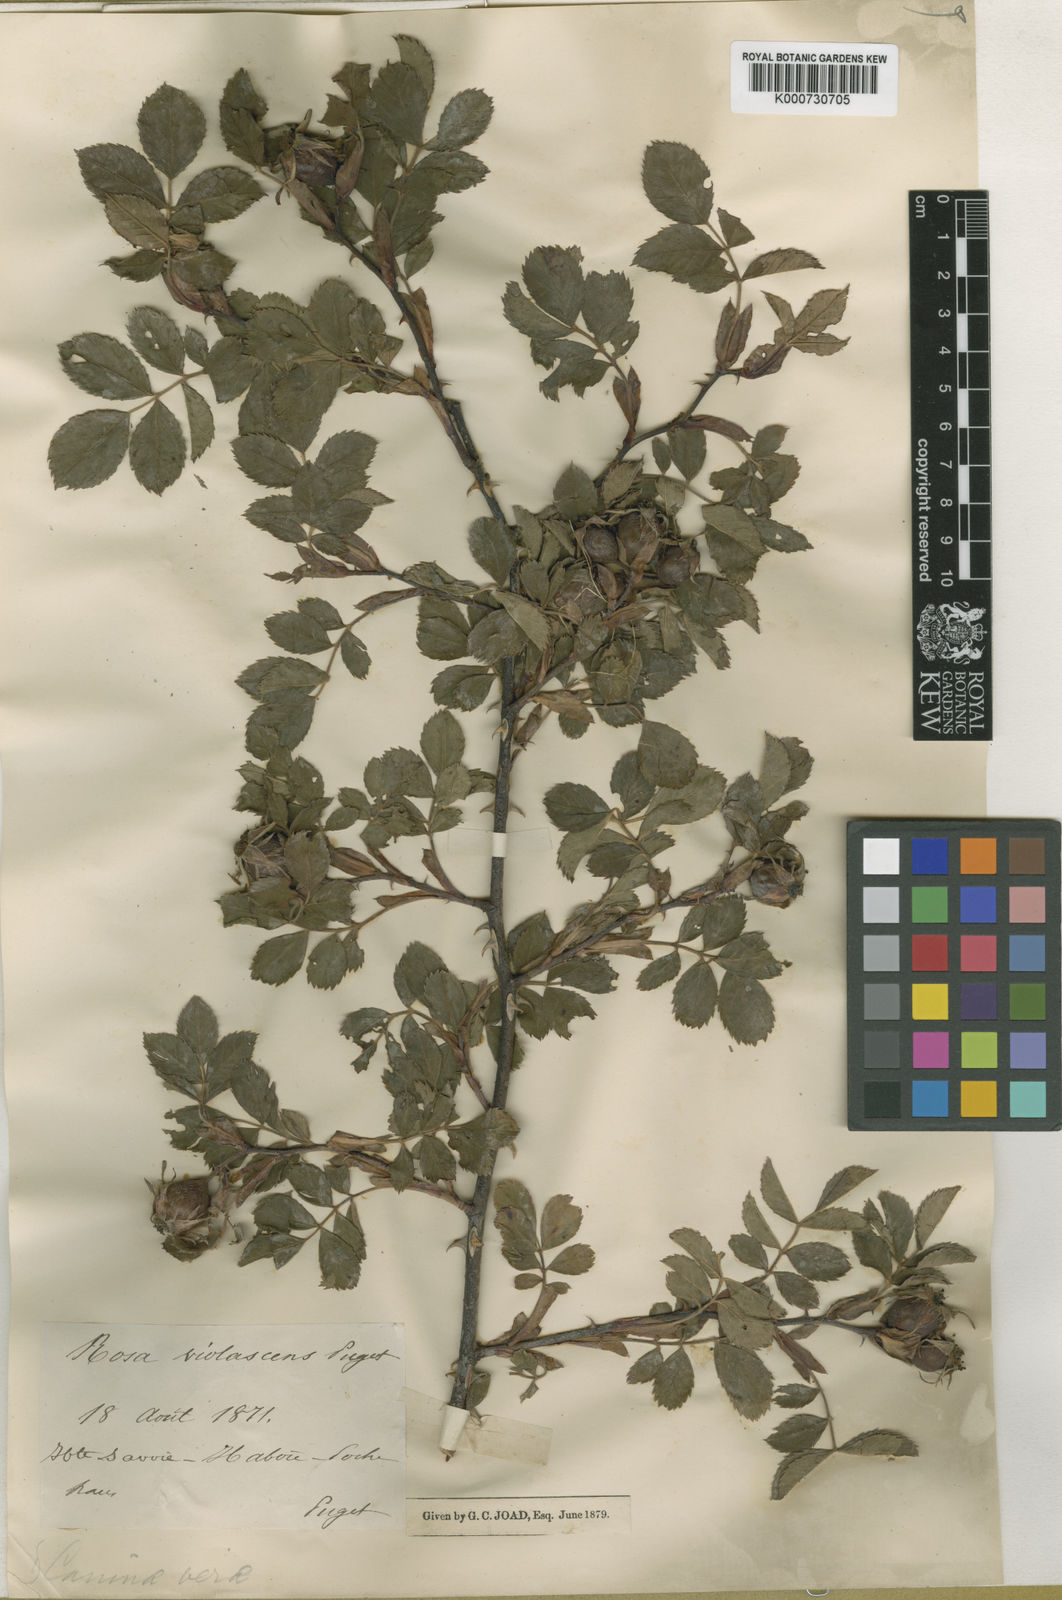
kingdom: Plantae
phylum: Tracheophyta
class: Magnoliopsida
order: Rosales
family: Rosaceae
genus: Rosa
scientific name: Rosa
